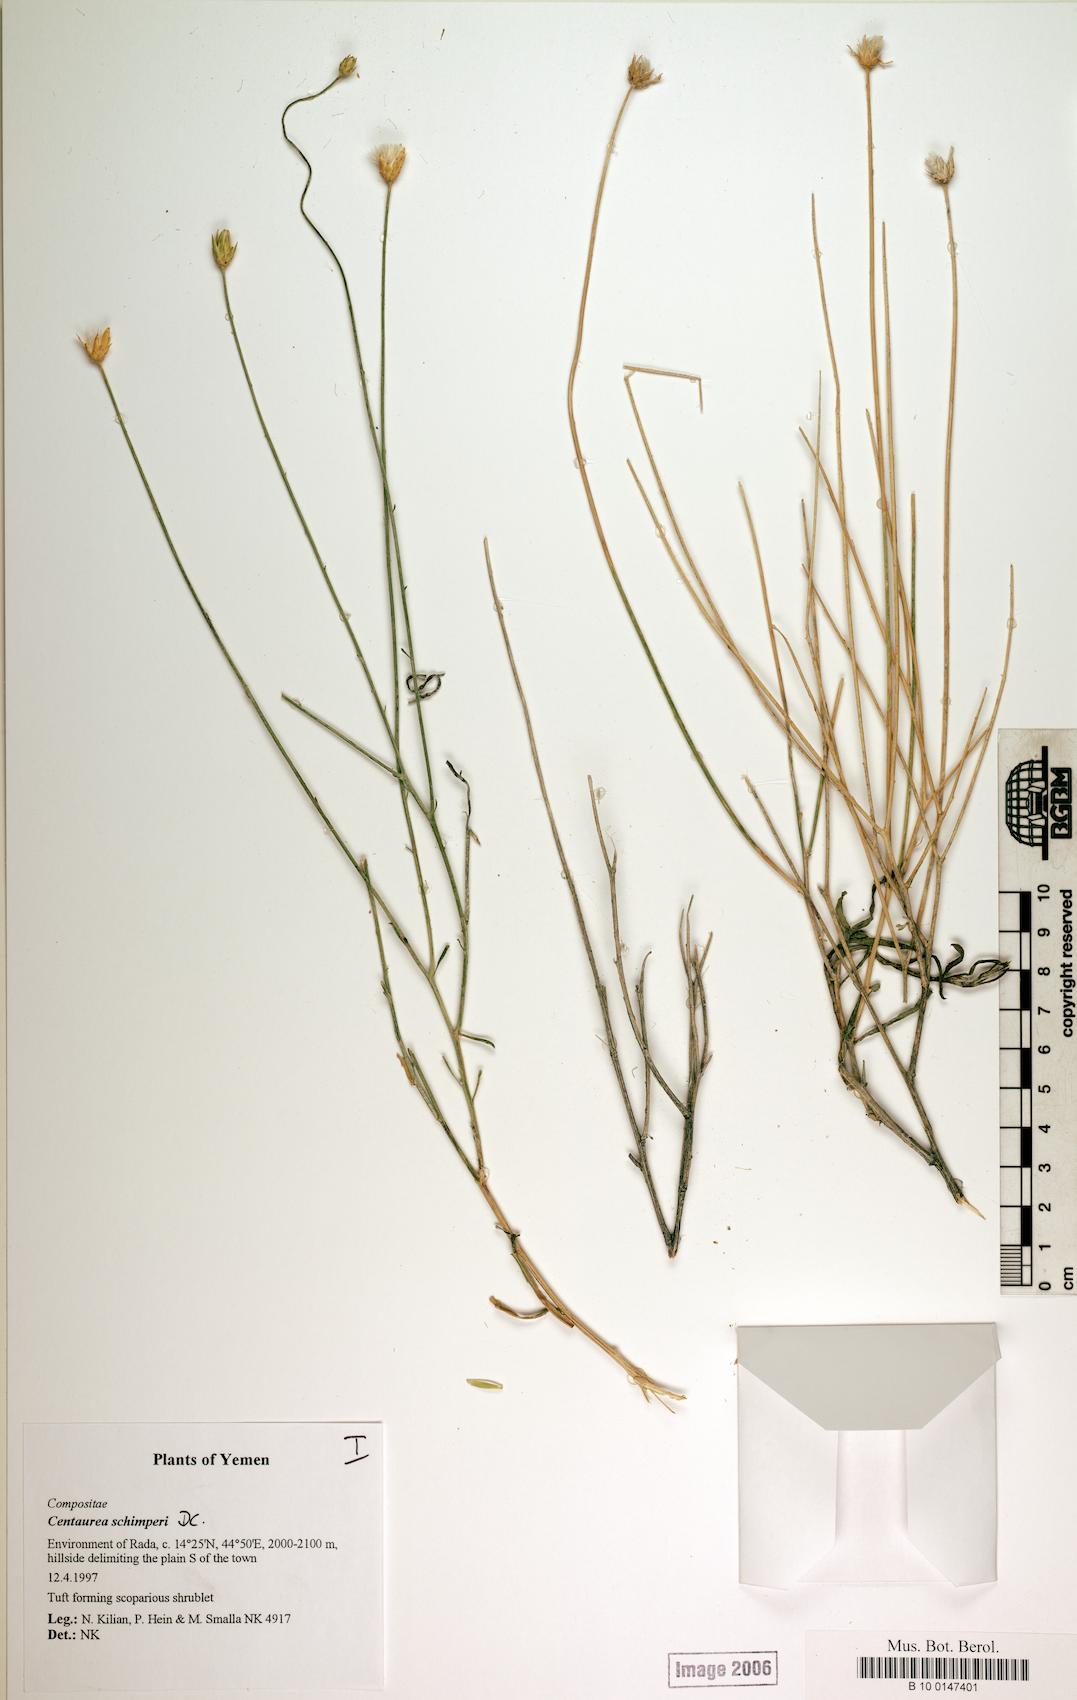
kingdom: Plantae
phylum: Tracheophyta
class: Magnoliopsida
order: Asterales
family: Asteraceae
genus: Centaurea
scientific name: Centaurea schimperi
